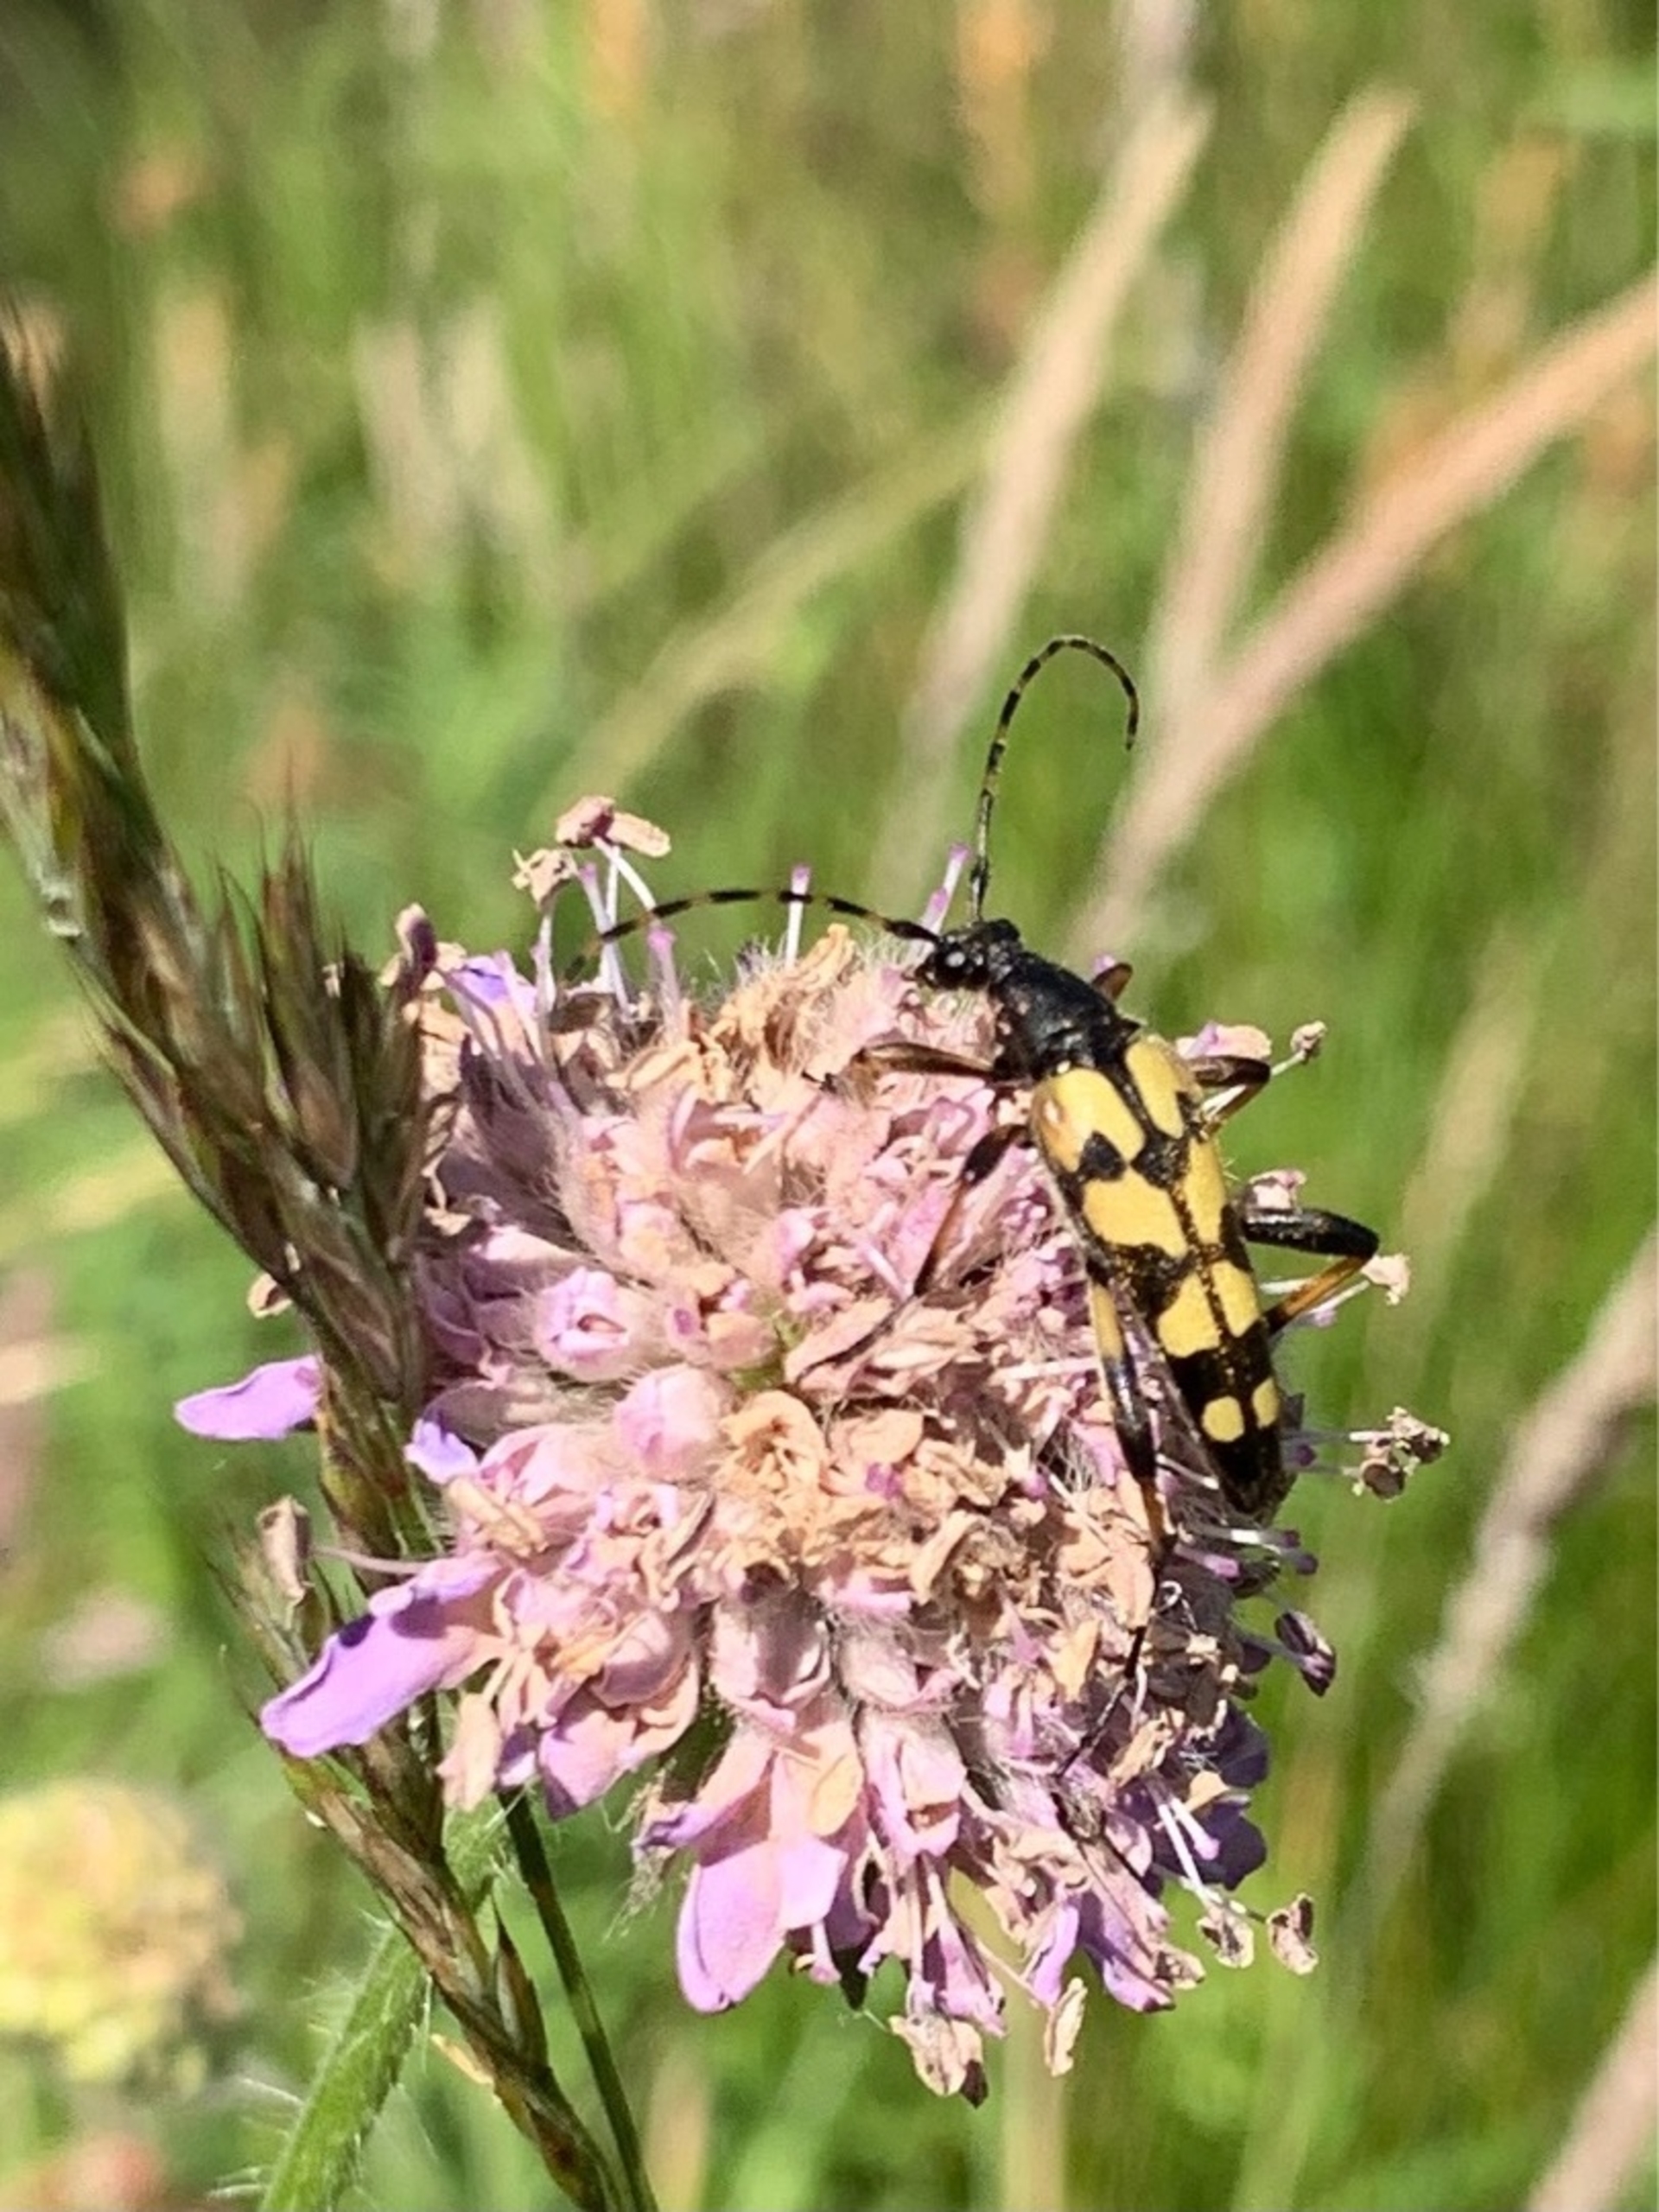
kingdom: Animalia
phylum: Arthropoda
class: Insecta
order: Coleoptera
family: Cerambycidae
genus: Rutpela
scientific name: Rutpela maculata
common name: Sydlig blomsterbuk
